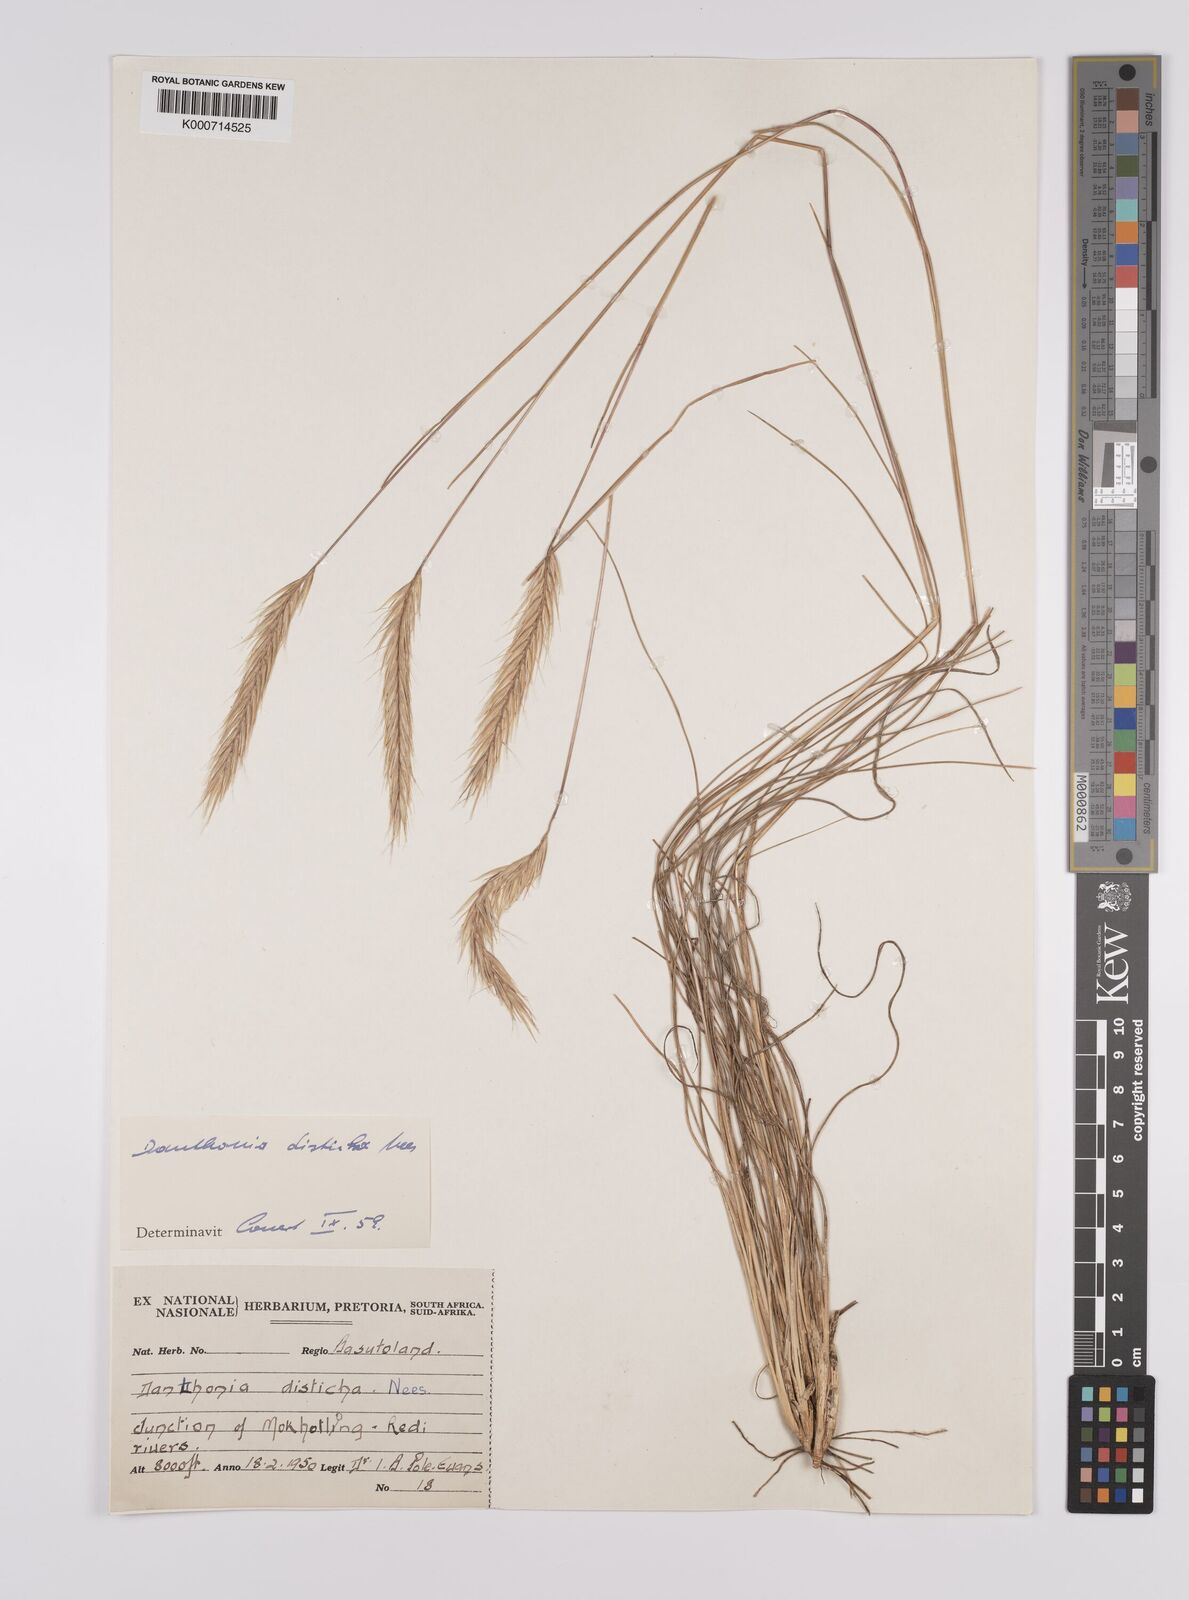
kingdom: Plantae
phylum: Tracheophyta
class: Liliopsida
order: Poales
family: Poaceae
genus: Tenaxia
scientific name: Tenaxia disticha
